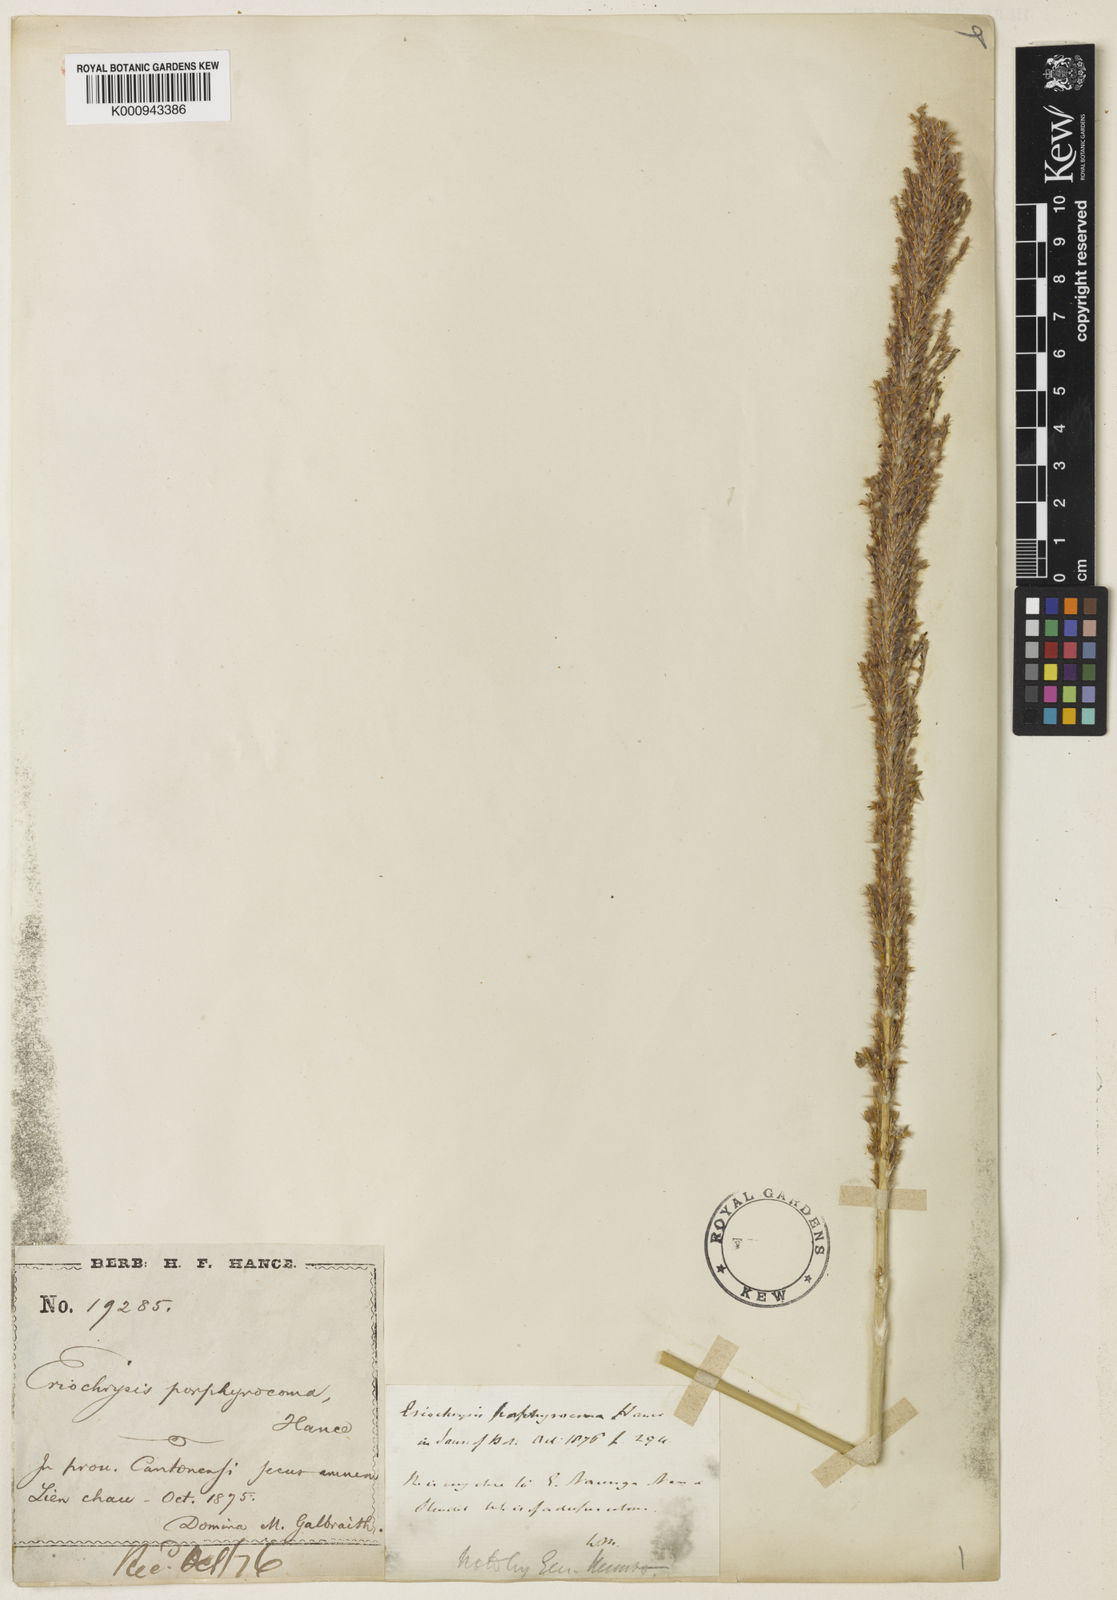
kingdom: Plantae
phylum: Tracheophyta
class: Liliopsida
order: Poales
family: Poaceae
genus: Narenga
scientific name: Narenga porphyrocoma
